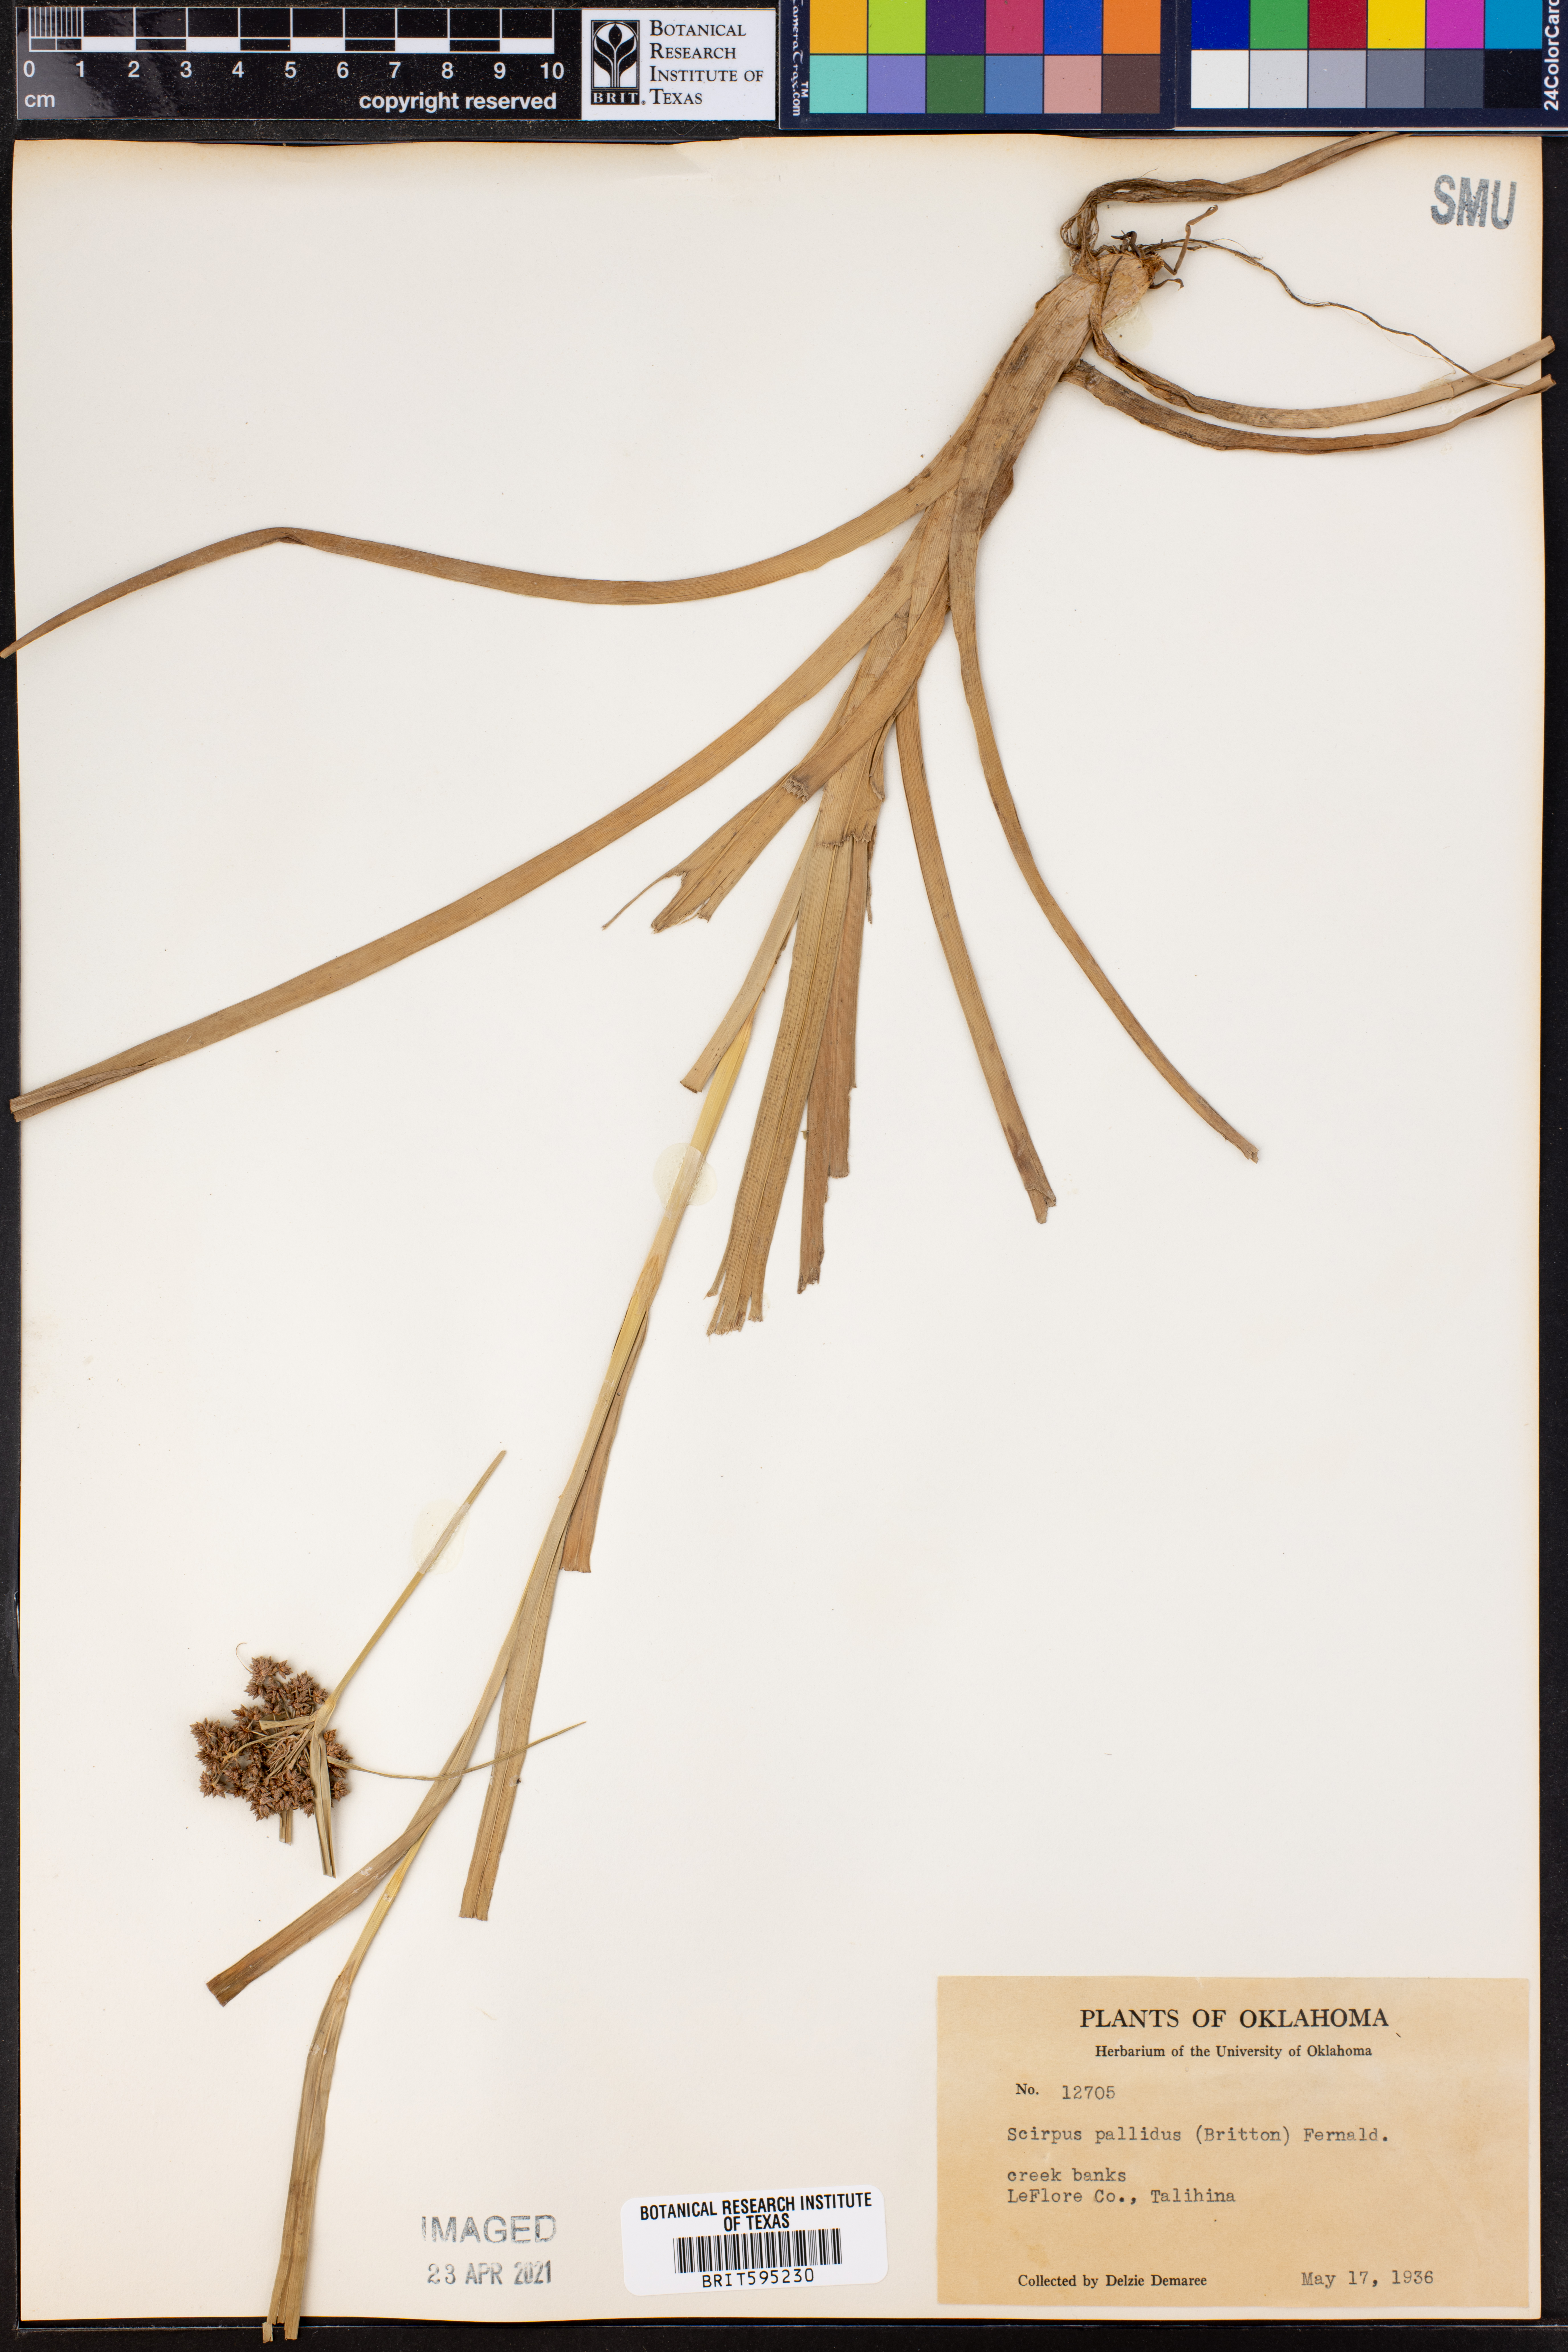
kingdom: Plantae
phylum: Tracheophyta
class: Liliopsida
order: Poales
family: Cyperaceae
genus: Scirpus
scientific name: Scirpus pallidus
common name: Cloaked bulrush
